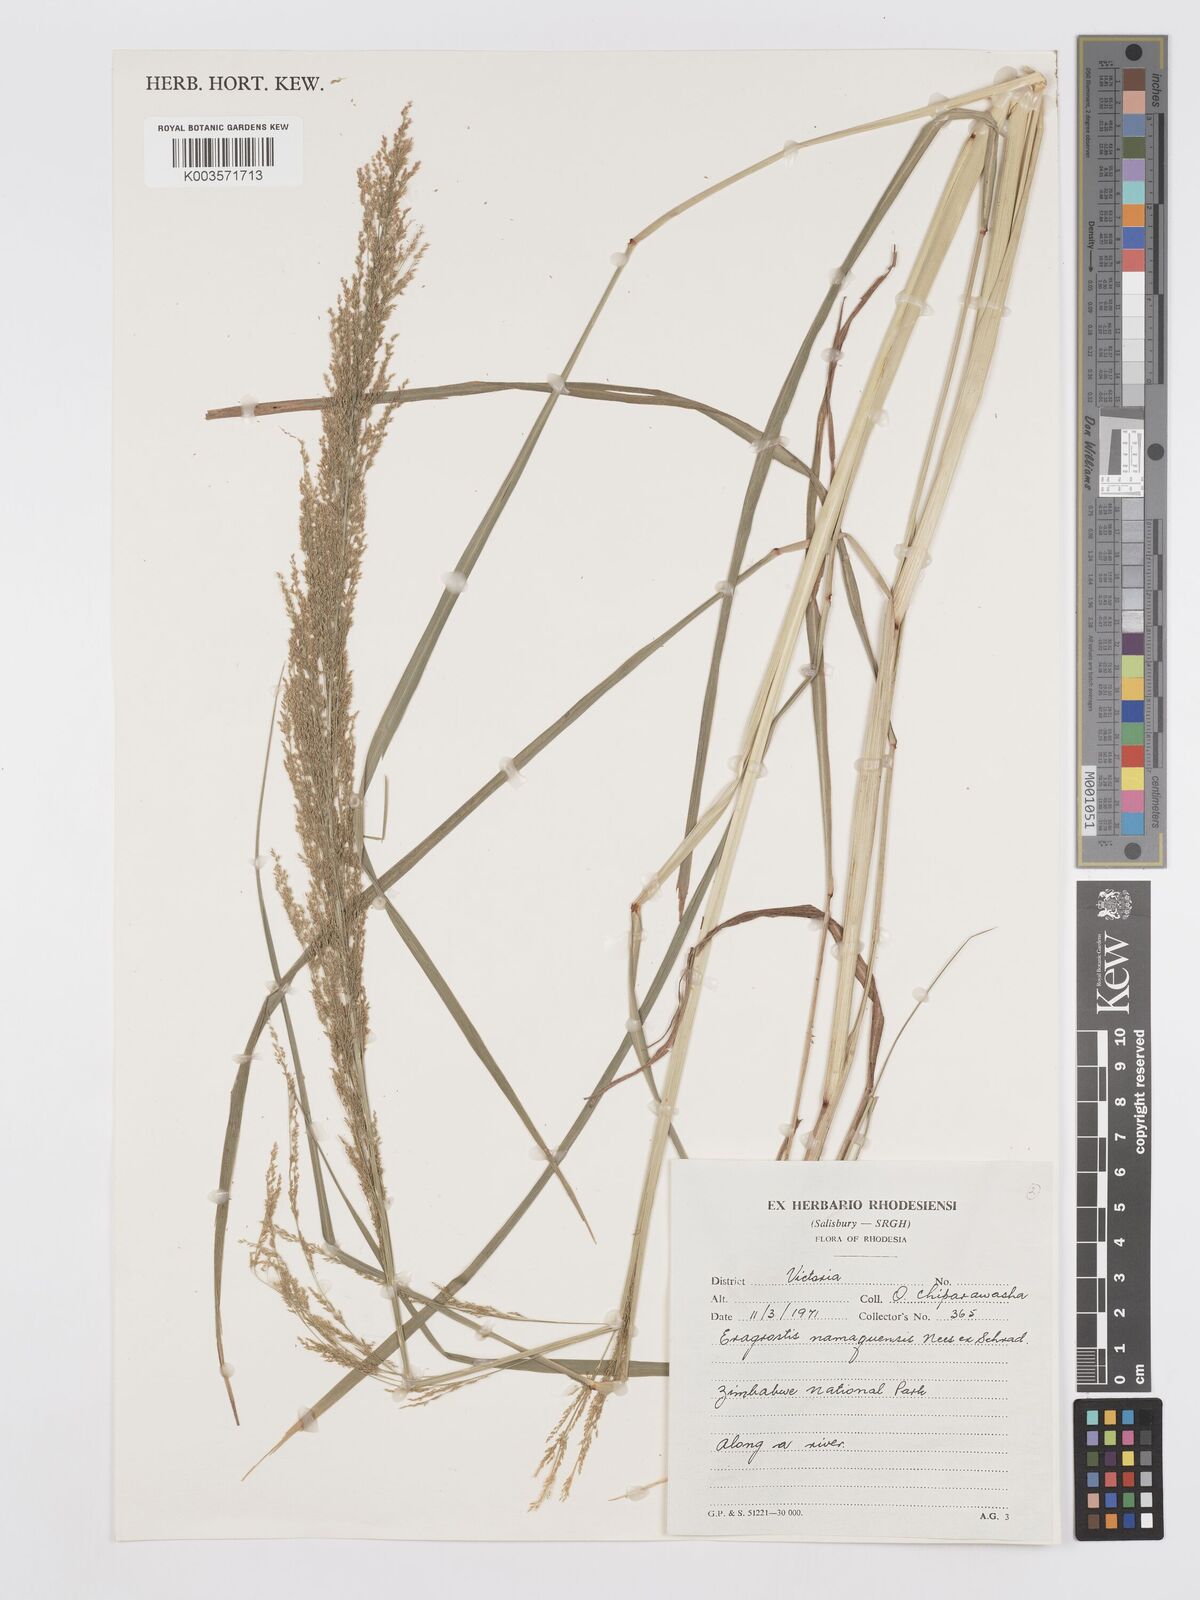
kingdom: Plantae
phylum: Tracheophyta
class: Liliopsida
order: Poales
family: Poaceae
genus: Eragrostis
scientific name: Eragrostis japonica
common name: Pond lovegrass
